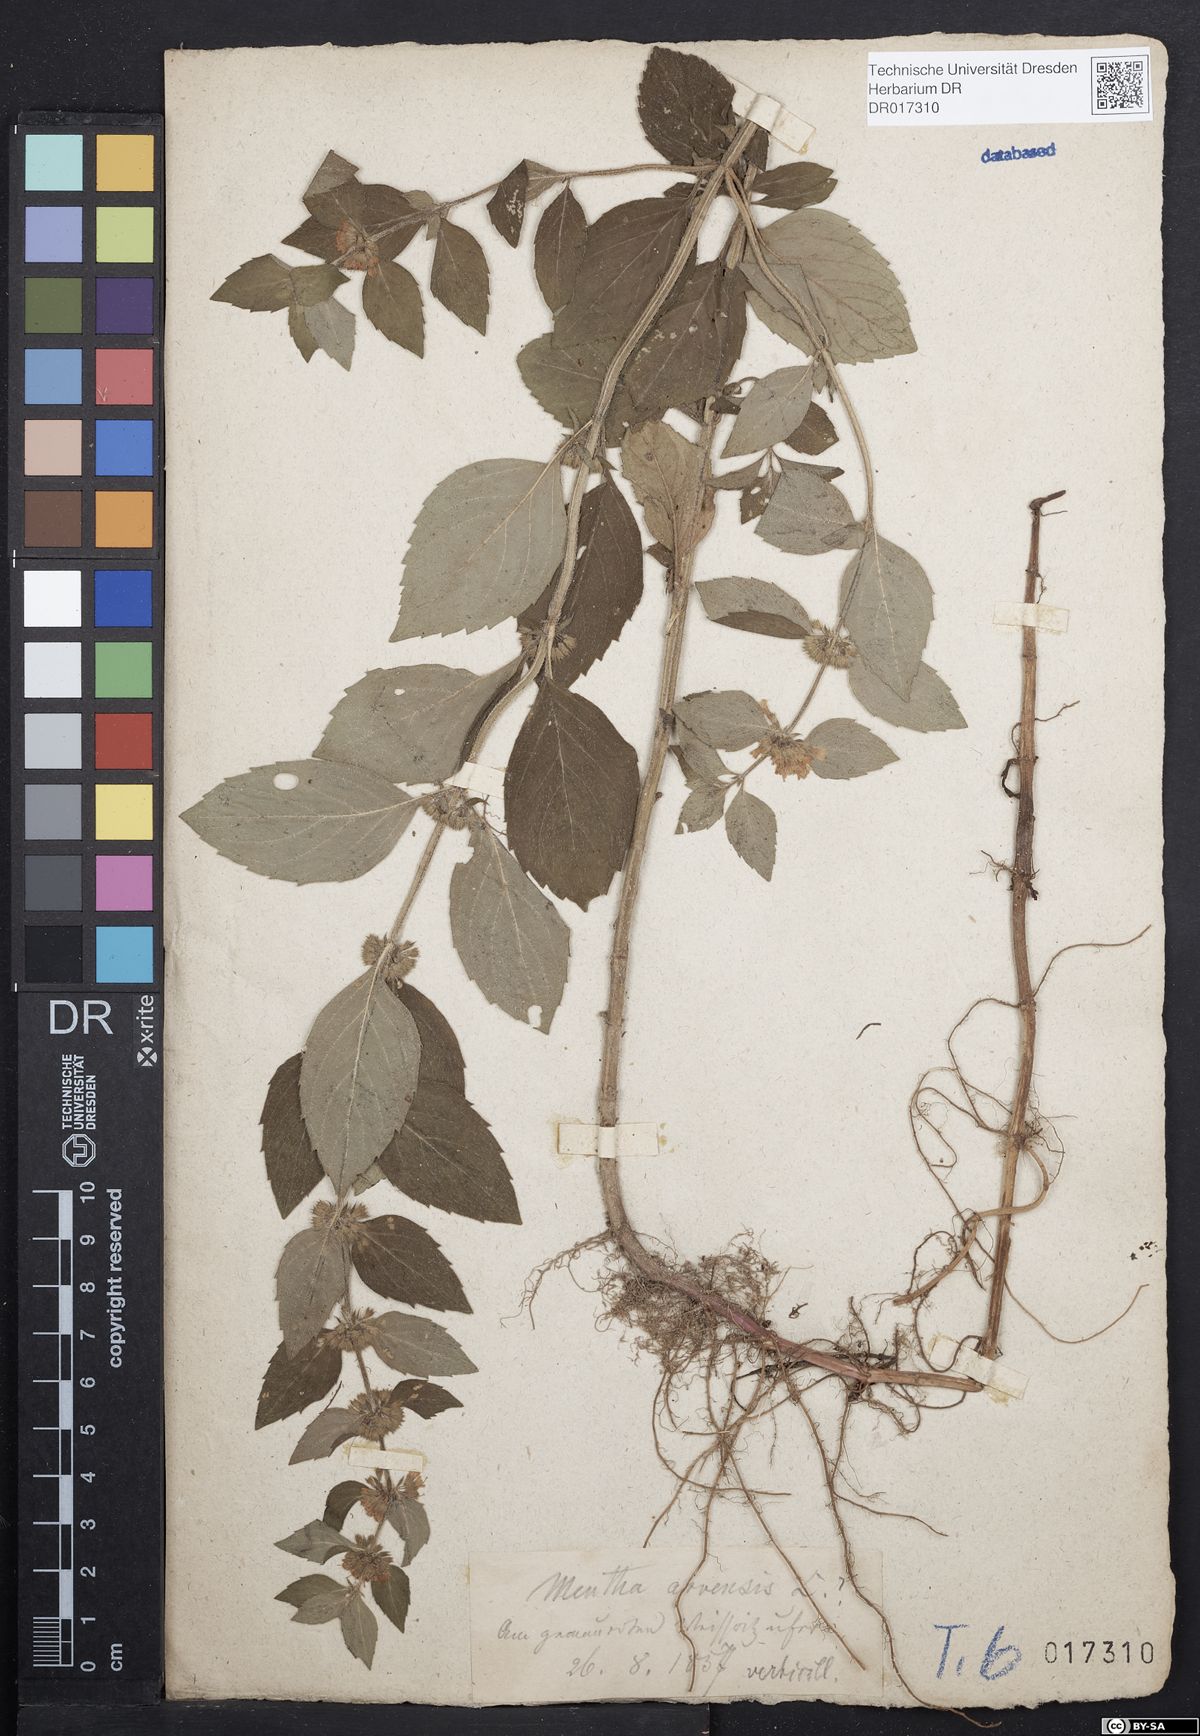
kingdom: Plantae
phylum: Tracheophyta
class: Magnoliopsida
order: Lamiales
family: Lamiaceae
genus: Mentha
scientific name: Mentha verticillata
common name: Mint
